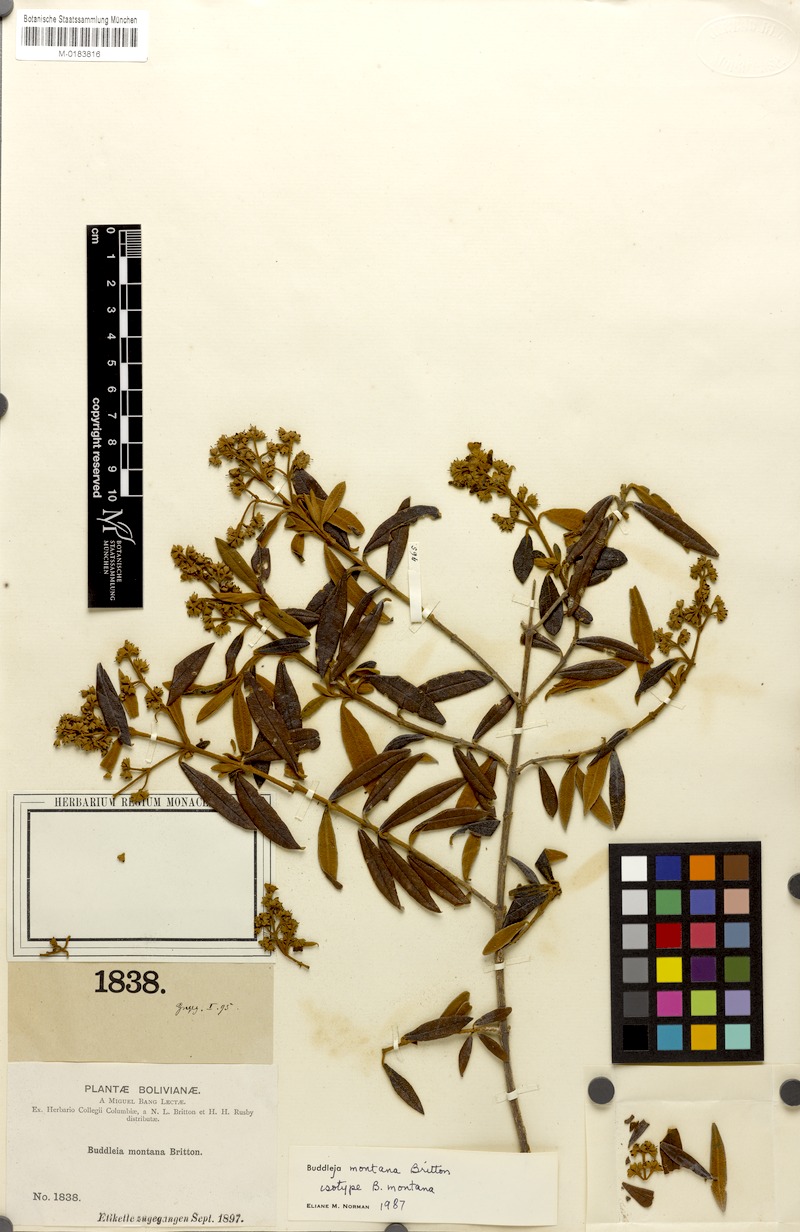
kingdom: Plantae
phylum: Tracheophyta
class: Magnoliopsida
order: Lamiales
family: Scrophulariaceae
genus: Buddleja
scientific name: Buddleja montana
